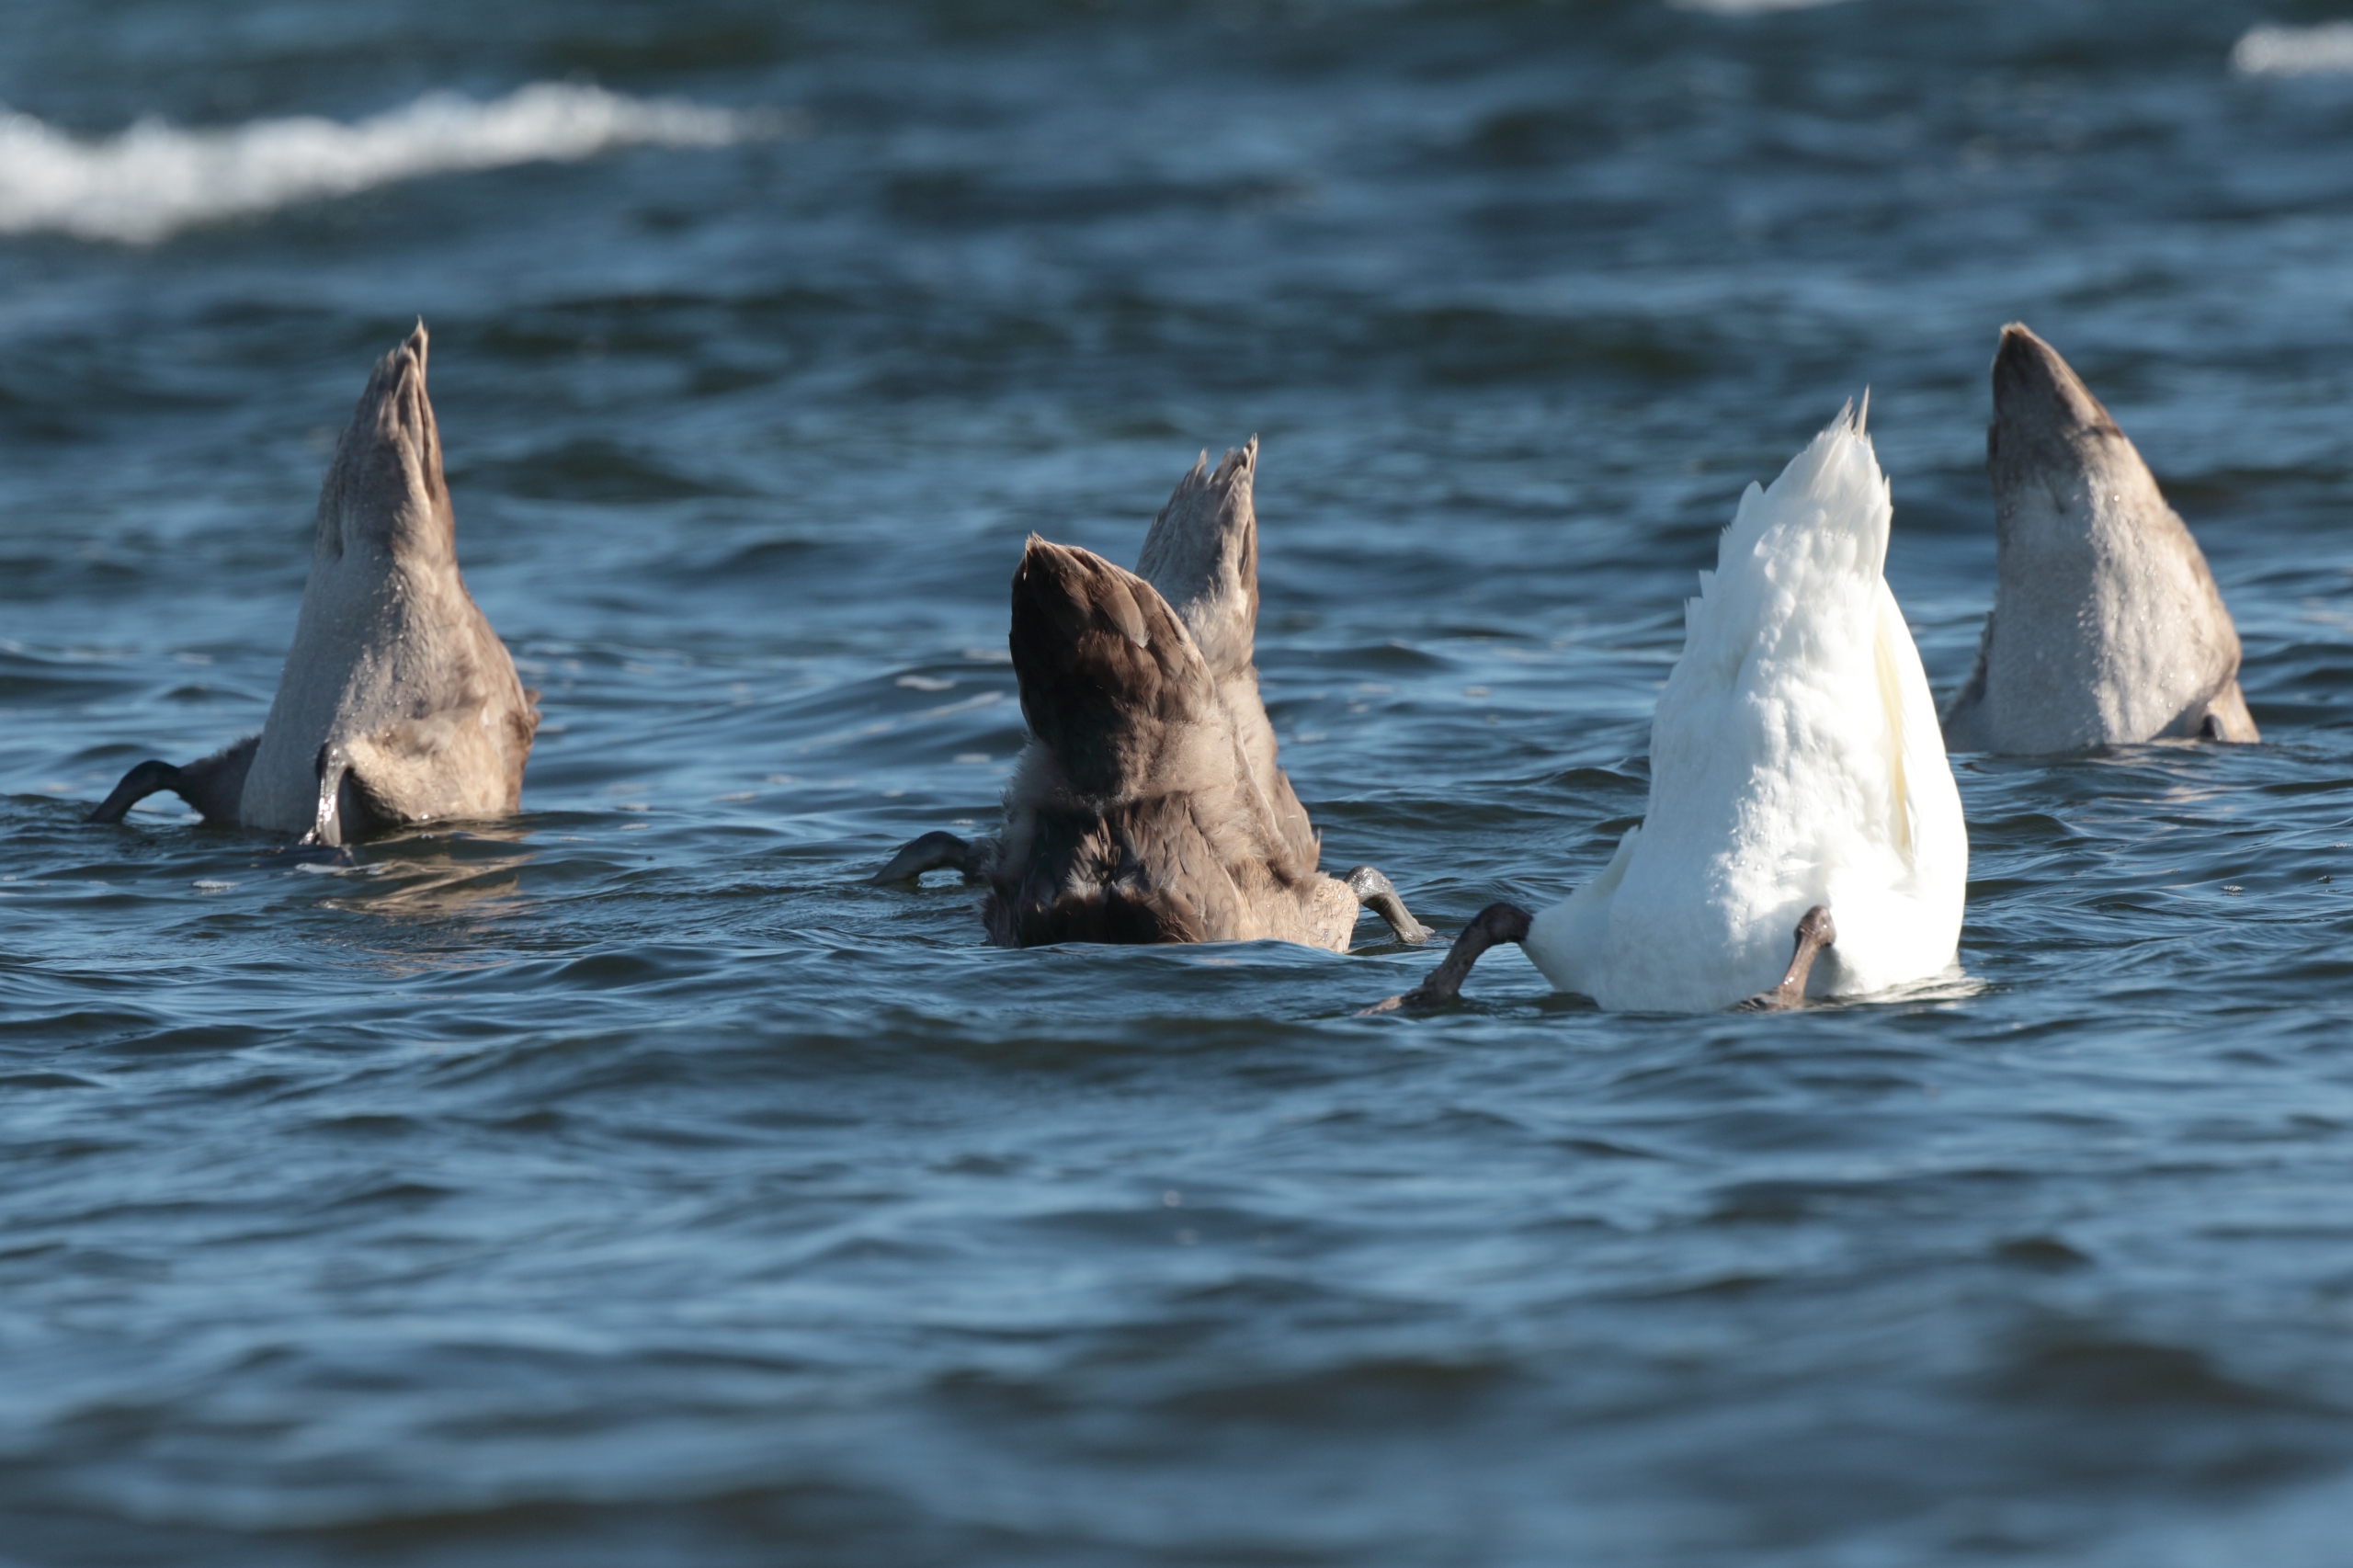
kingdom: Animalia
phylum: Chordata
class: Aves
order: Anseriformes
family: Anatidae
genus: Cygnus
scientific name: Cygnus olor
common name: Knopsvane
